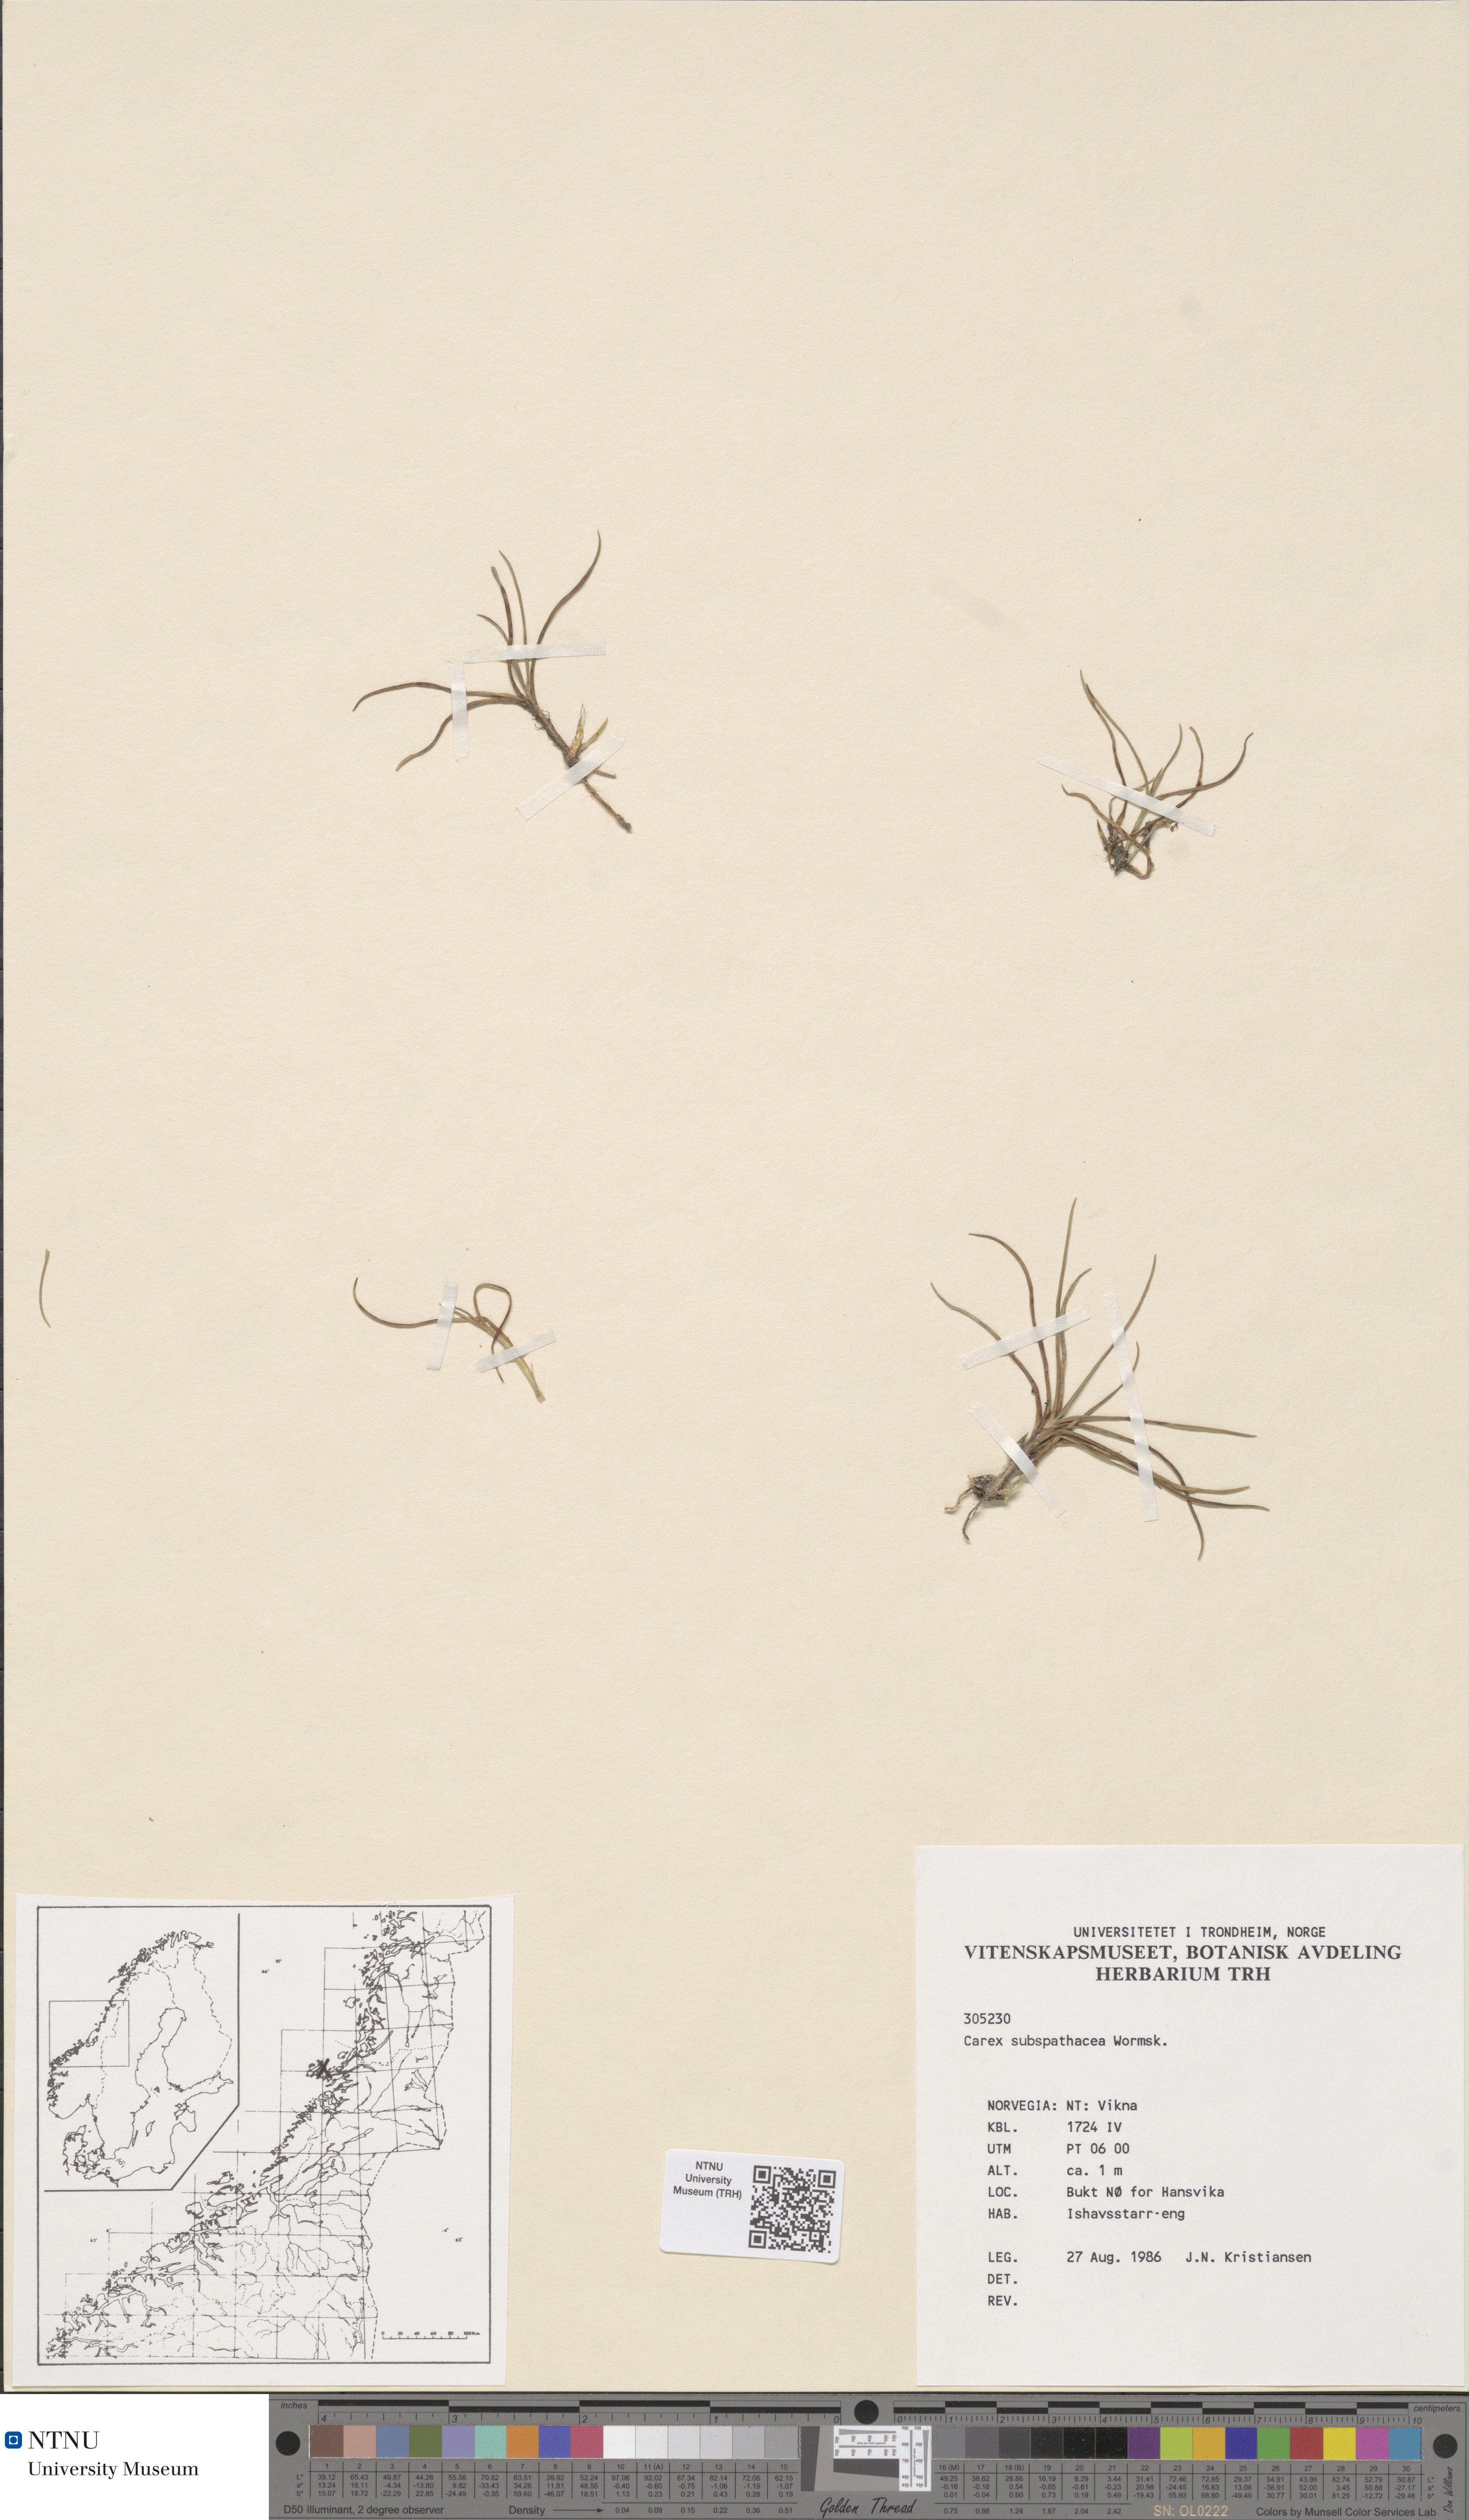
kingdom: Plantae
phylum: Tracheophyta
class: Liliopsida
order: Poales
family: Cyperaceae
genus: Carex
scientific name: Carex subspathacea
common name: Hoppner's sedge
